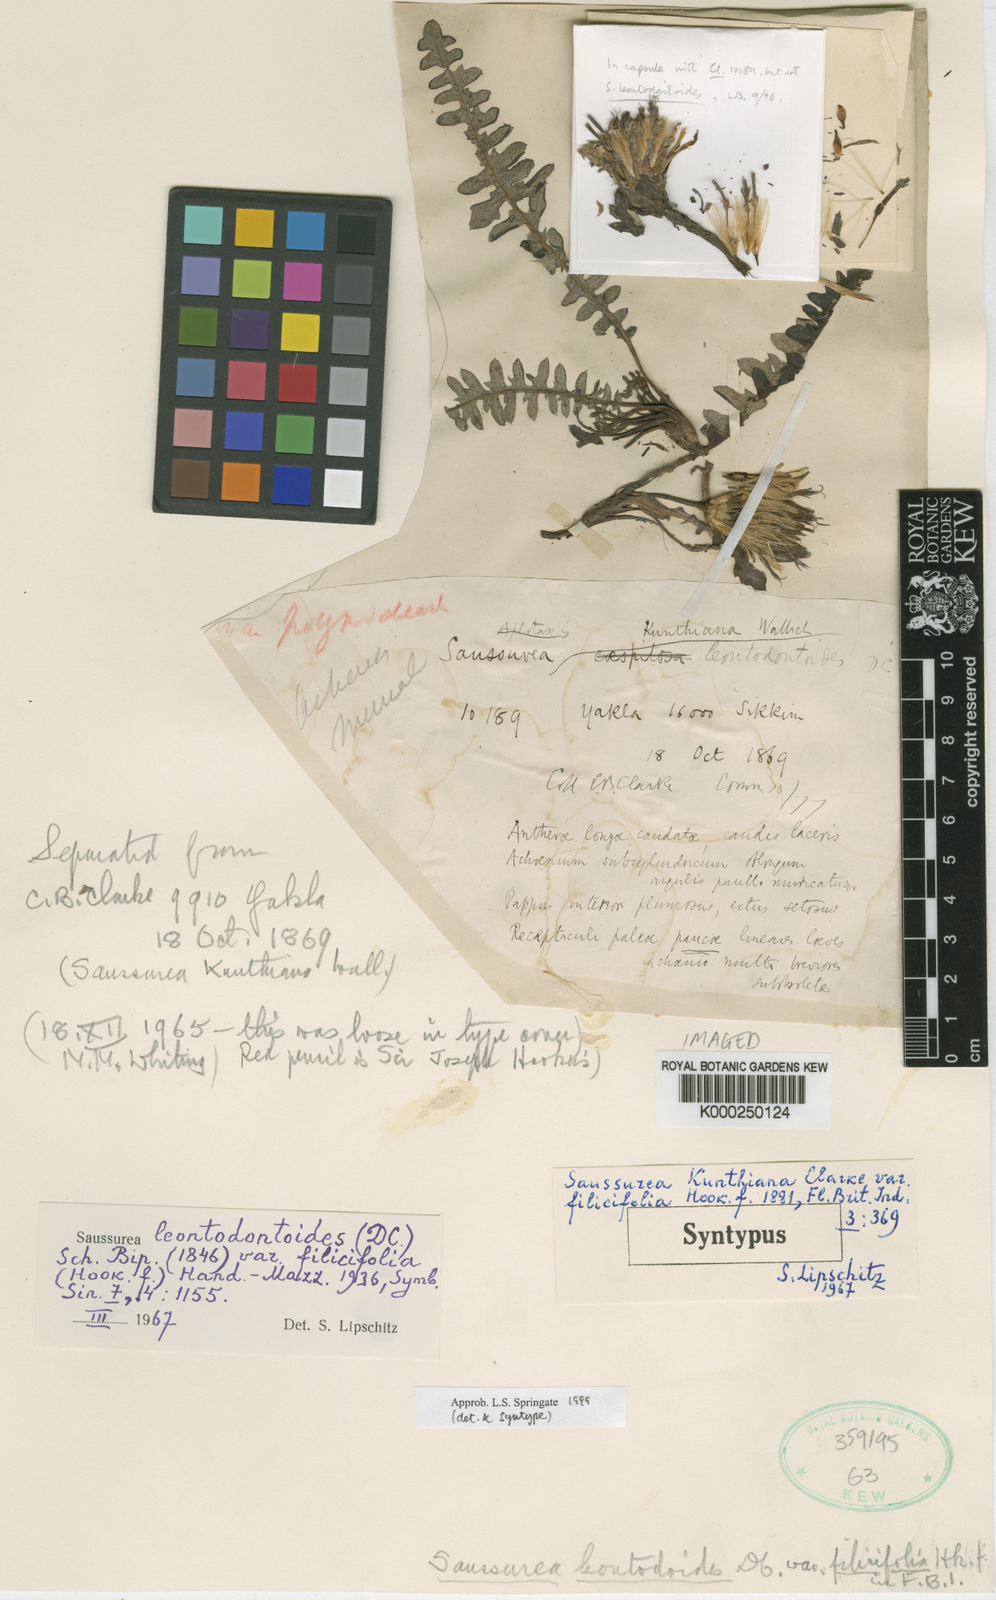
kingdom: Plantae
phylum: Tracheophyta
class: Magnoliopsida
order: Asterales
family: Asteraceae
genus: Saussurea
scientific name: Saussurea
